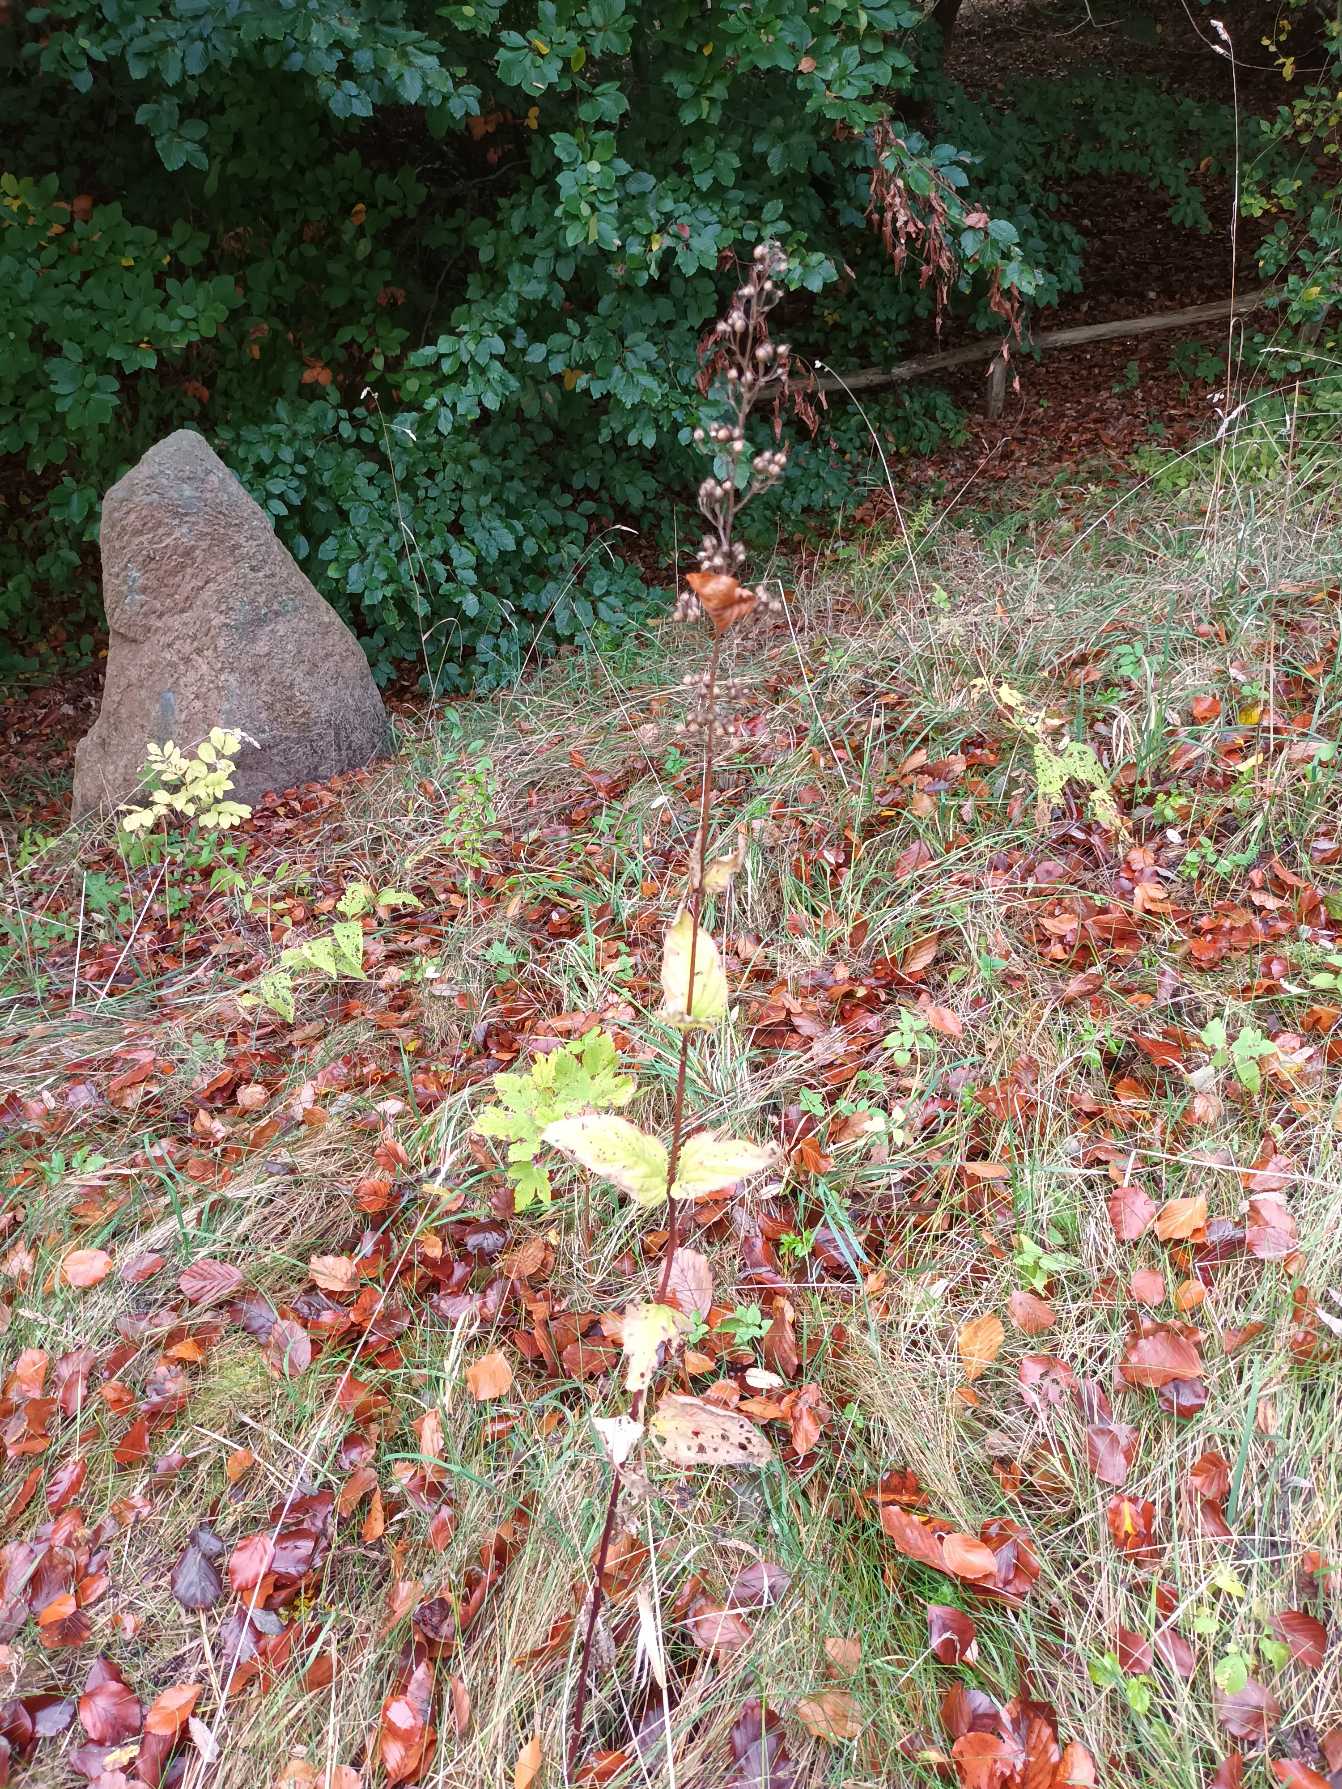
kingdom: Plantae
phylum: Tracheophyta
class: Magnoliopsida
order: Lamiales
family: Scrophulariaceae
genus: Scrophularia
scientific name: Scrophularia nodosa
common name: Knoldet brunrod
